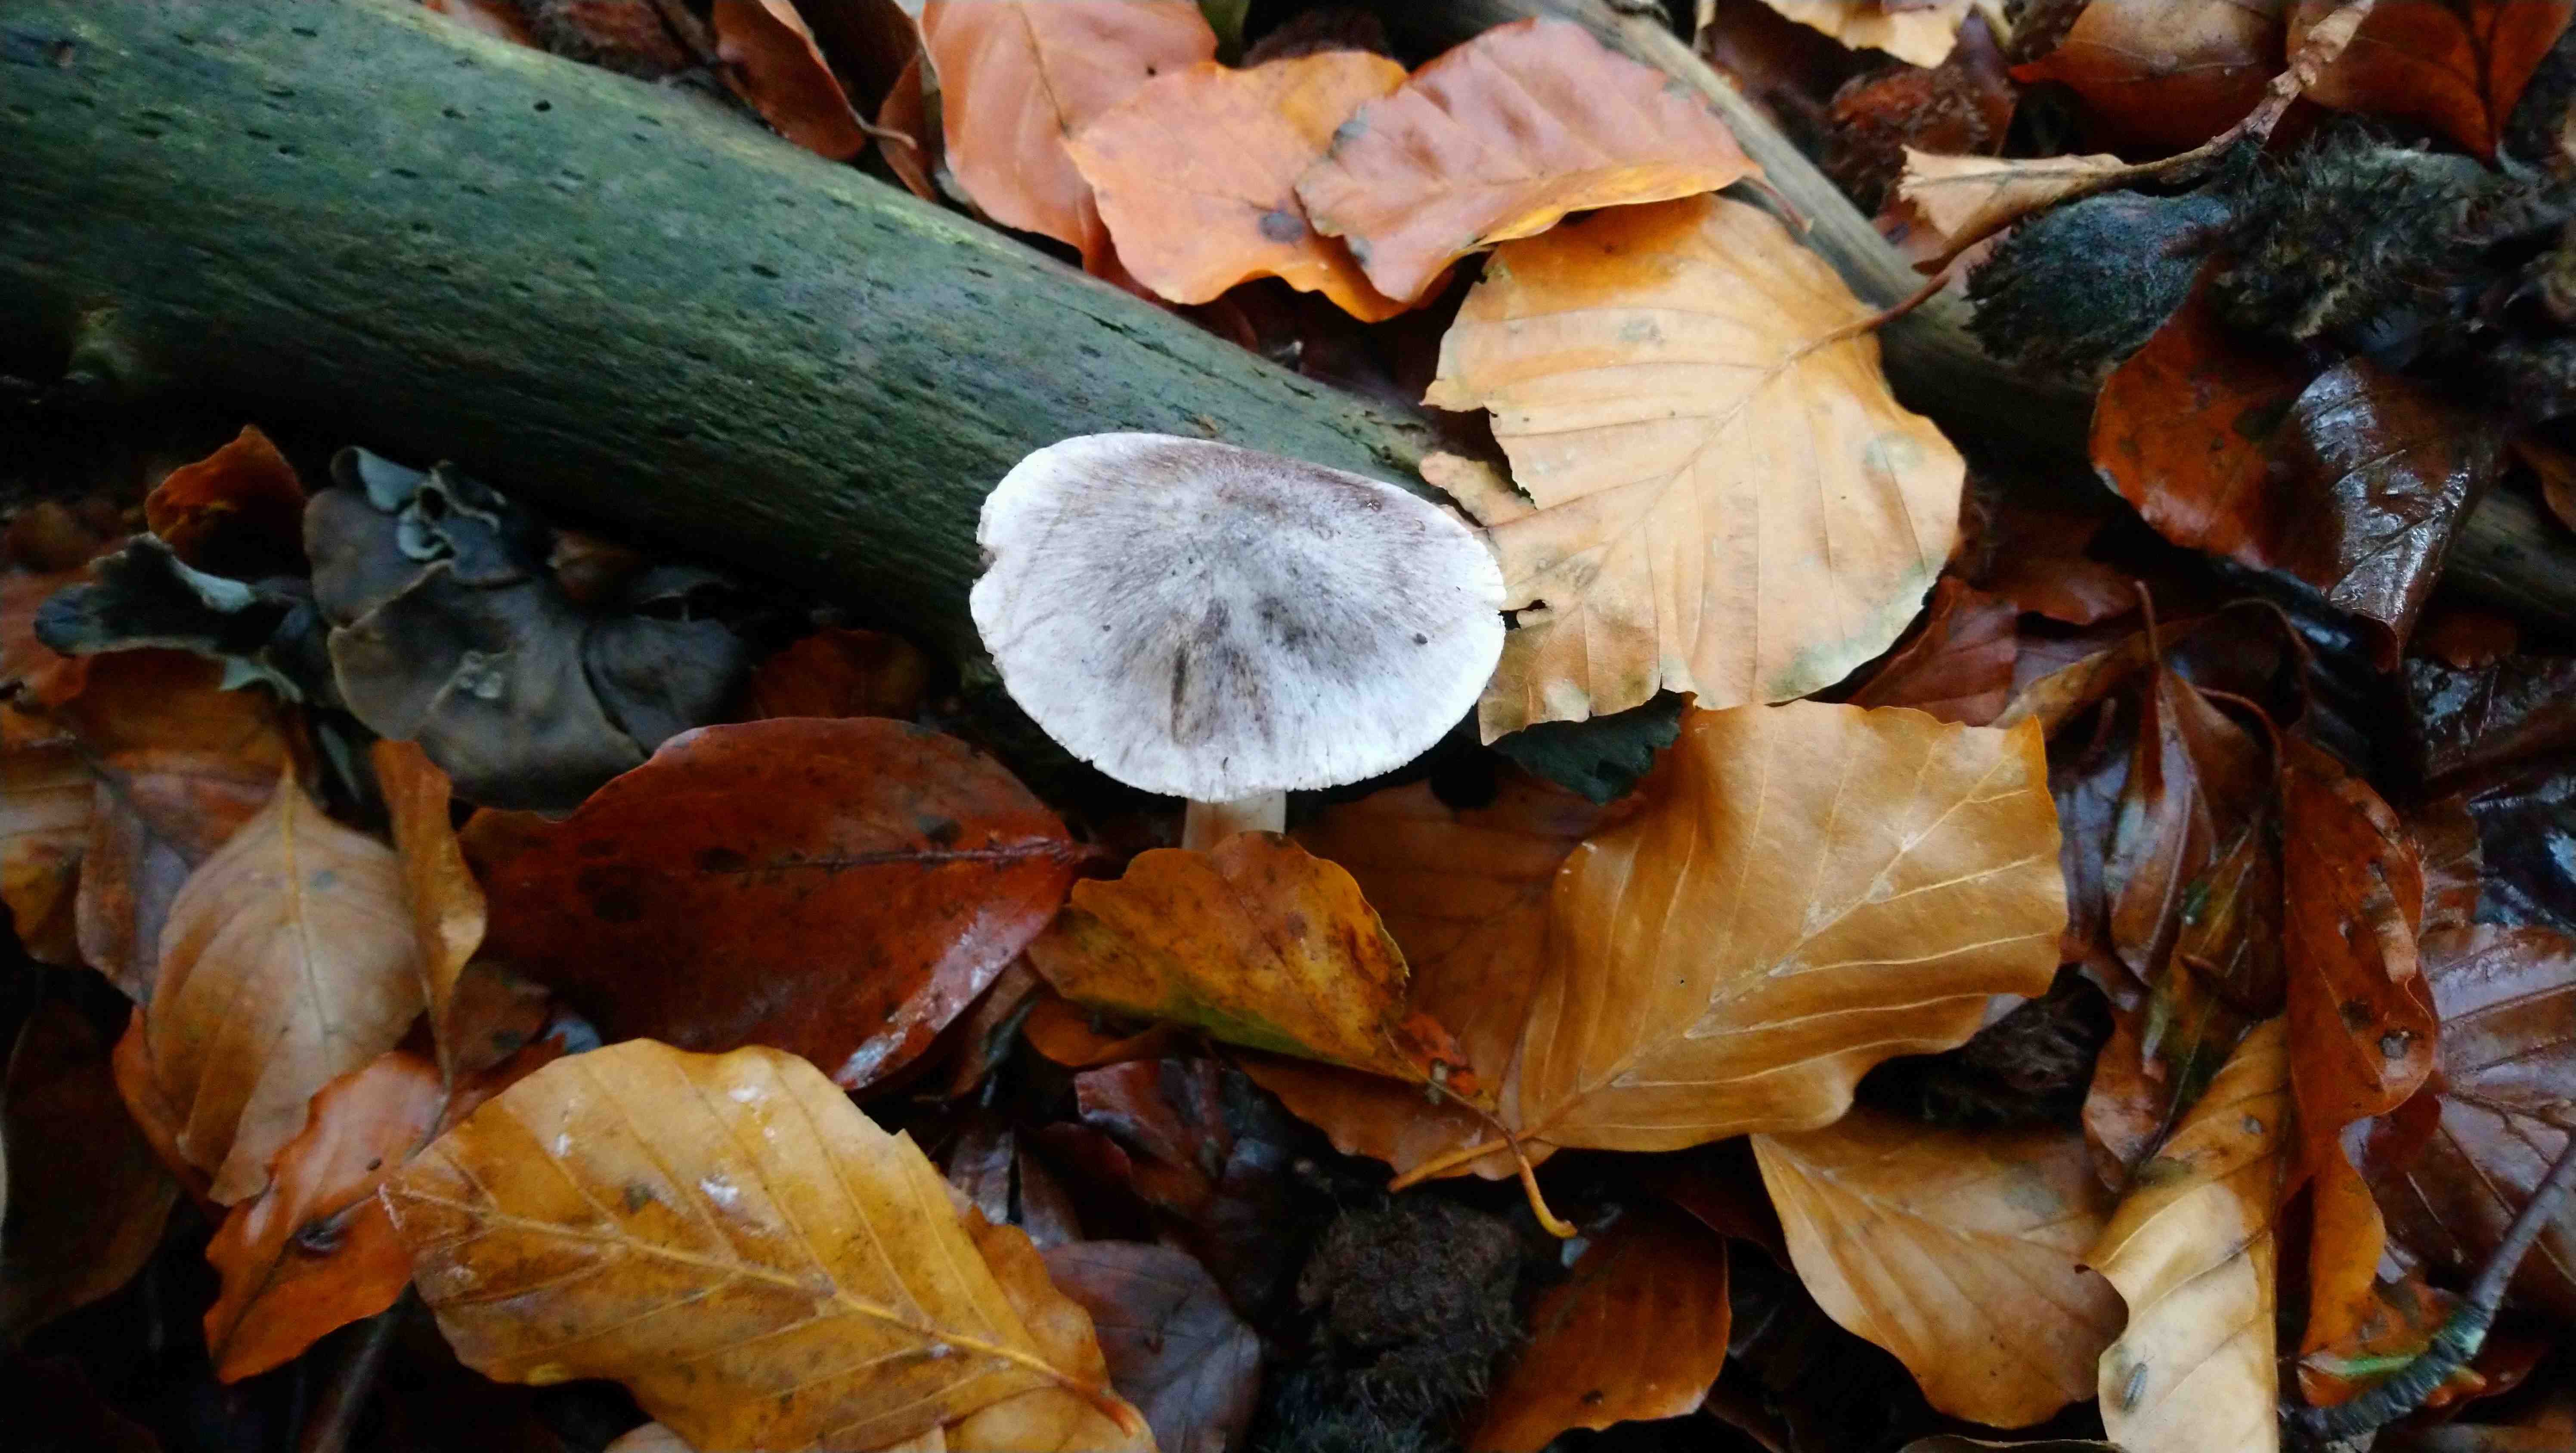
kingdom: Fungi
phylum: Basidiomycota
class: Agaricomycetes
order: Agaricales
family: Tricholomataceae
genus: Tricholoma
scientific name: Tricholoma
